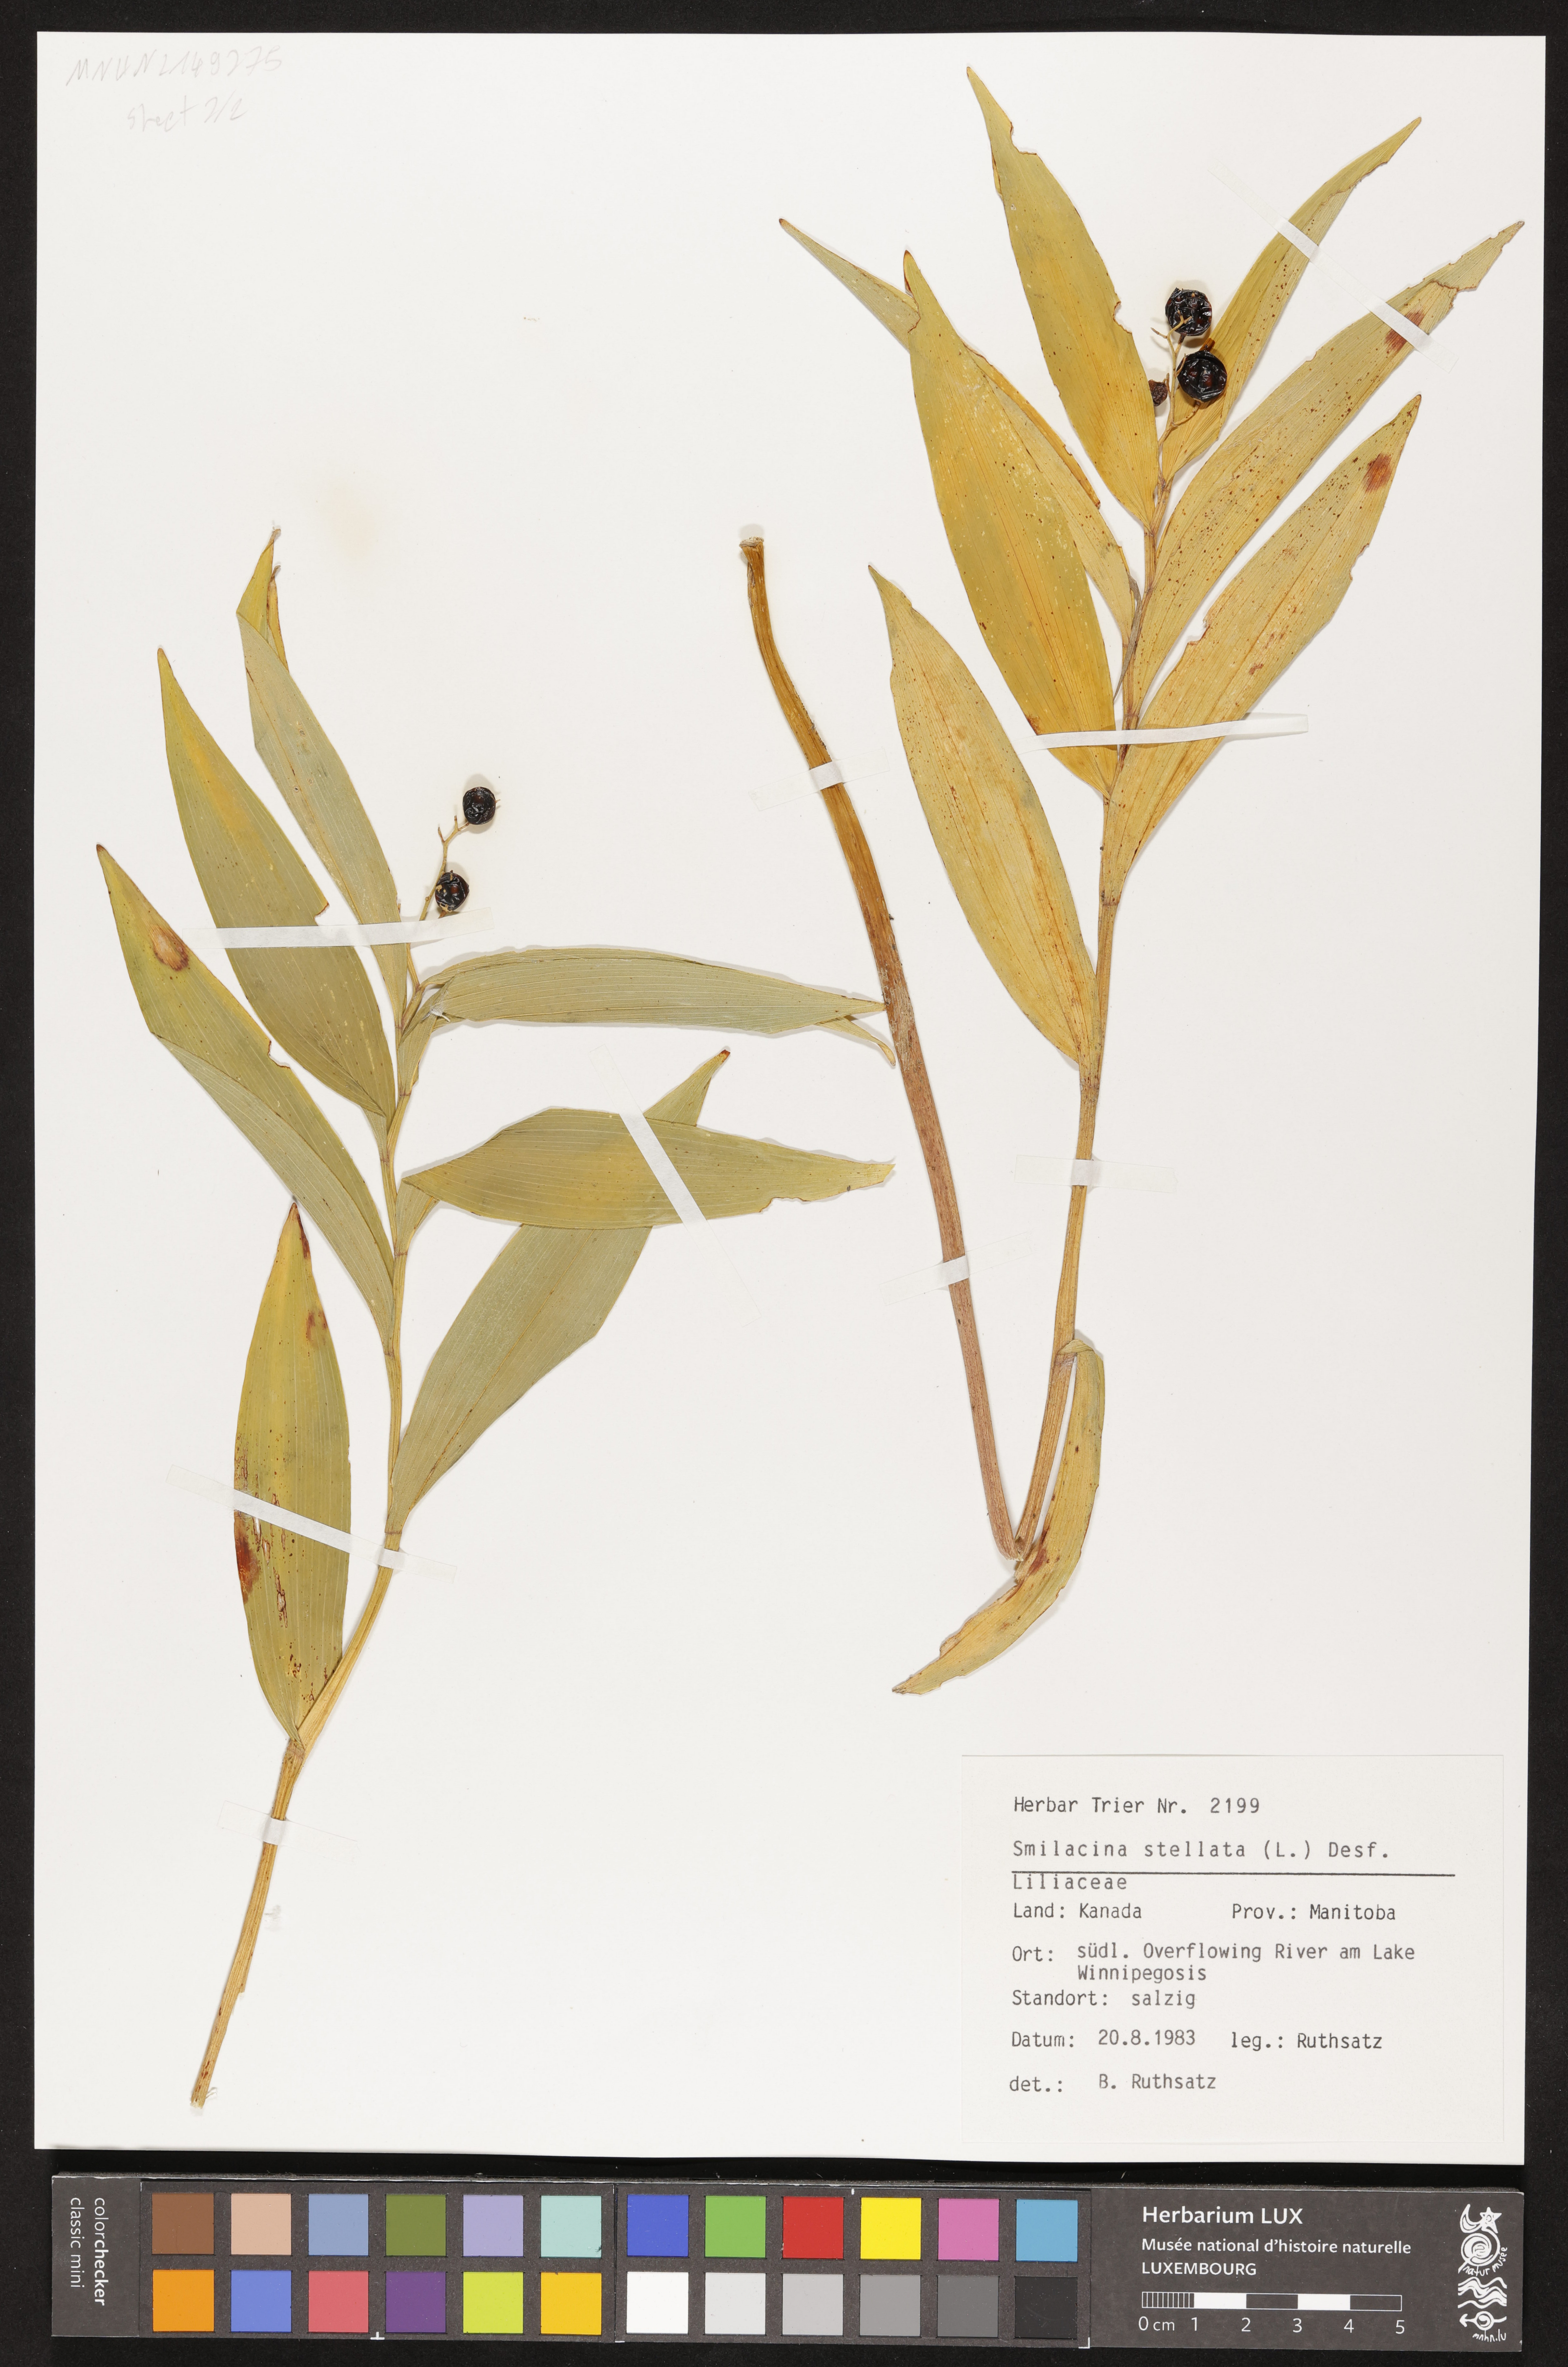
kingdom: Plantae
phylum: Tracheophyta
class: Liliopsida
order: Asparagales
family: Asparagaceae
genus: Maianthemum
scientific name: Maianthemum stellatum
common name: Little false solomon's seal
